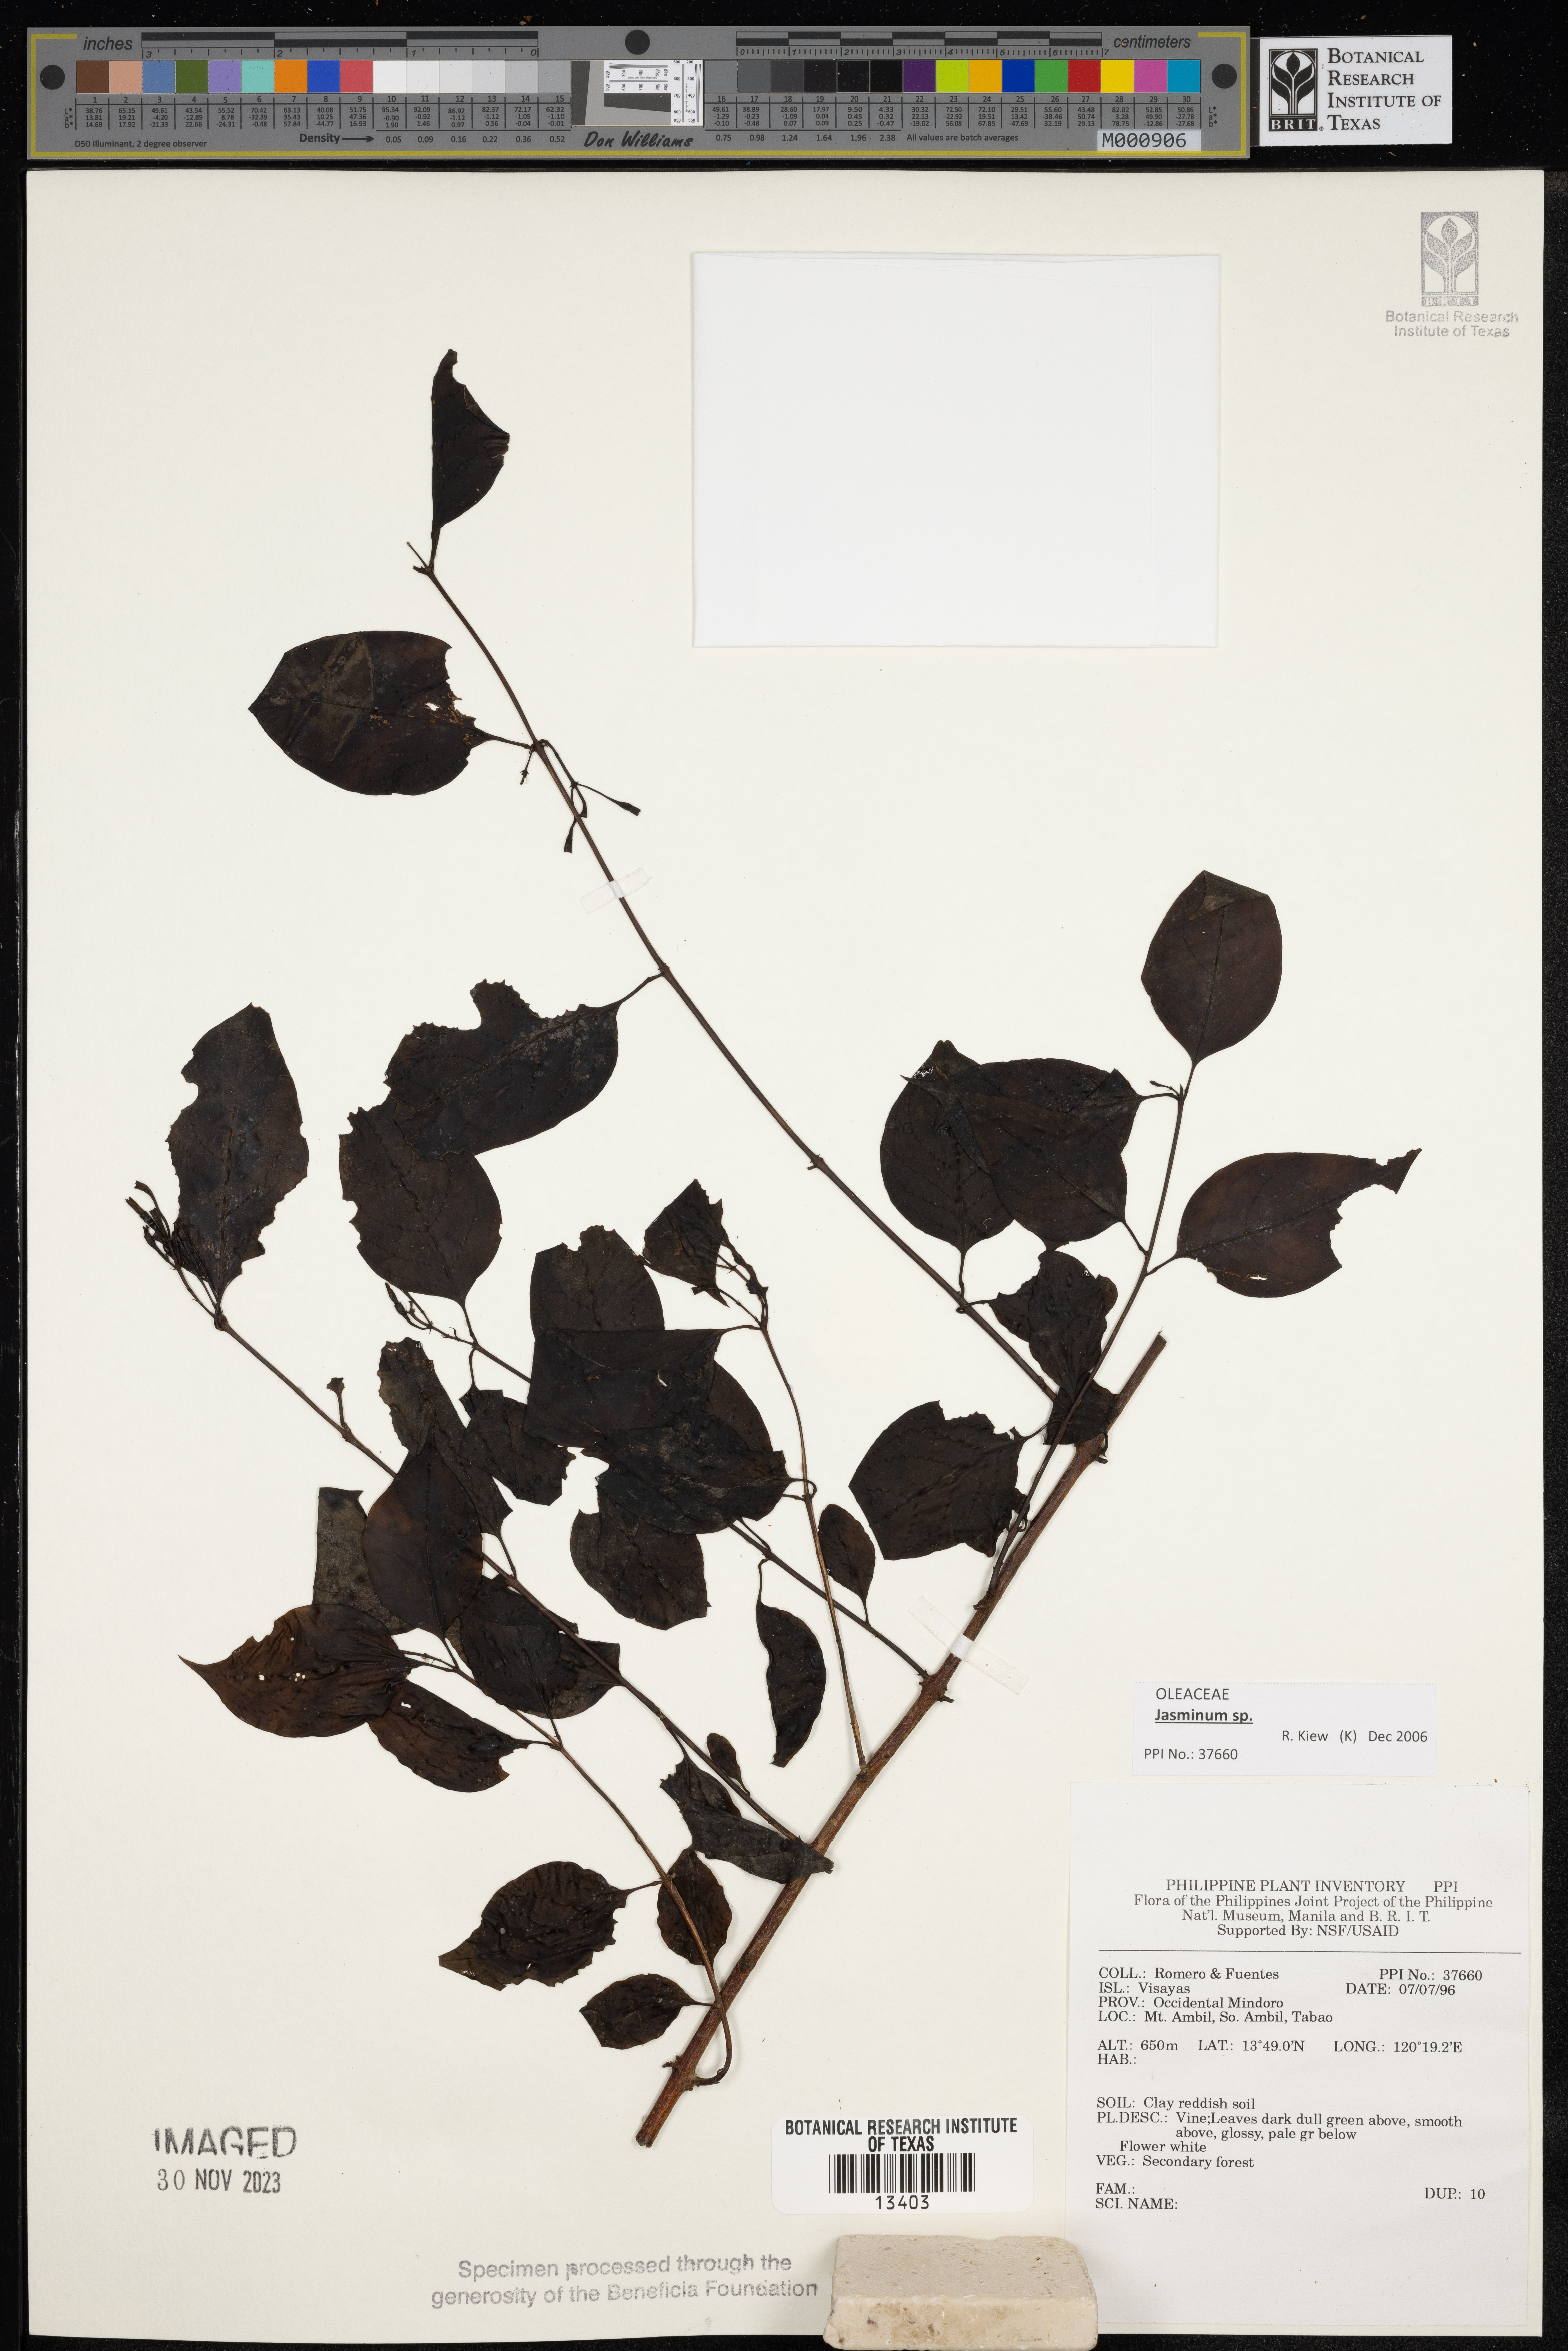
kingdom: Plantae
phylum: Tracheophyta
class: Magnoliopsida
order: Lamiales
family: Oleaceae
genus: Jasminum
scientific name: Jasminum
